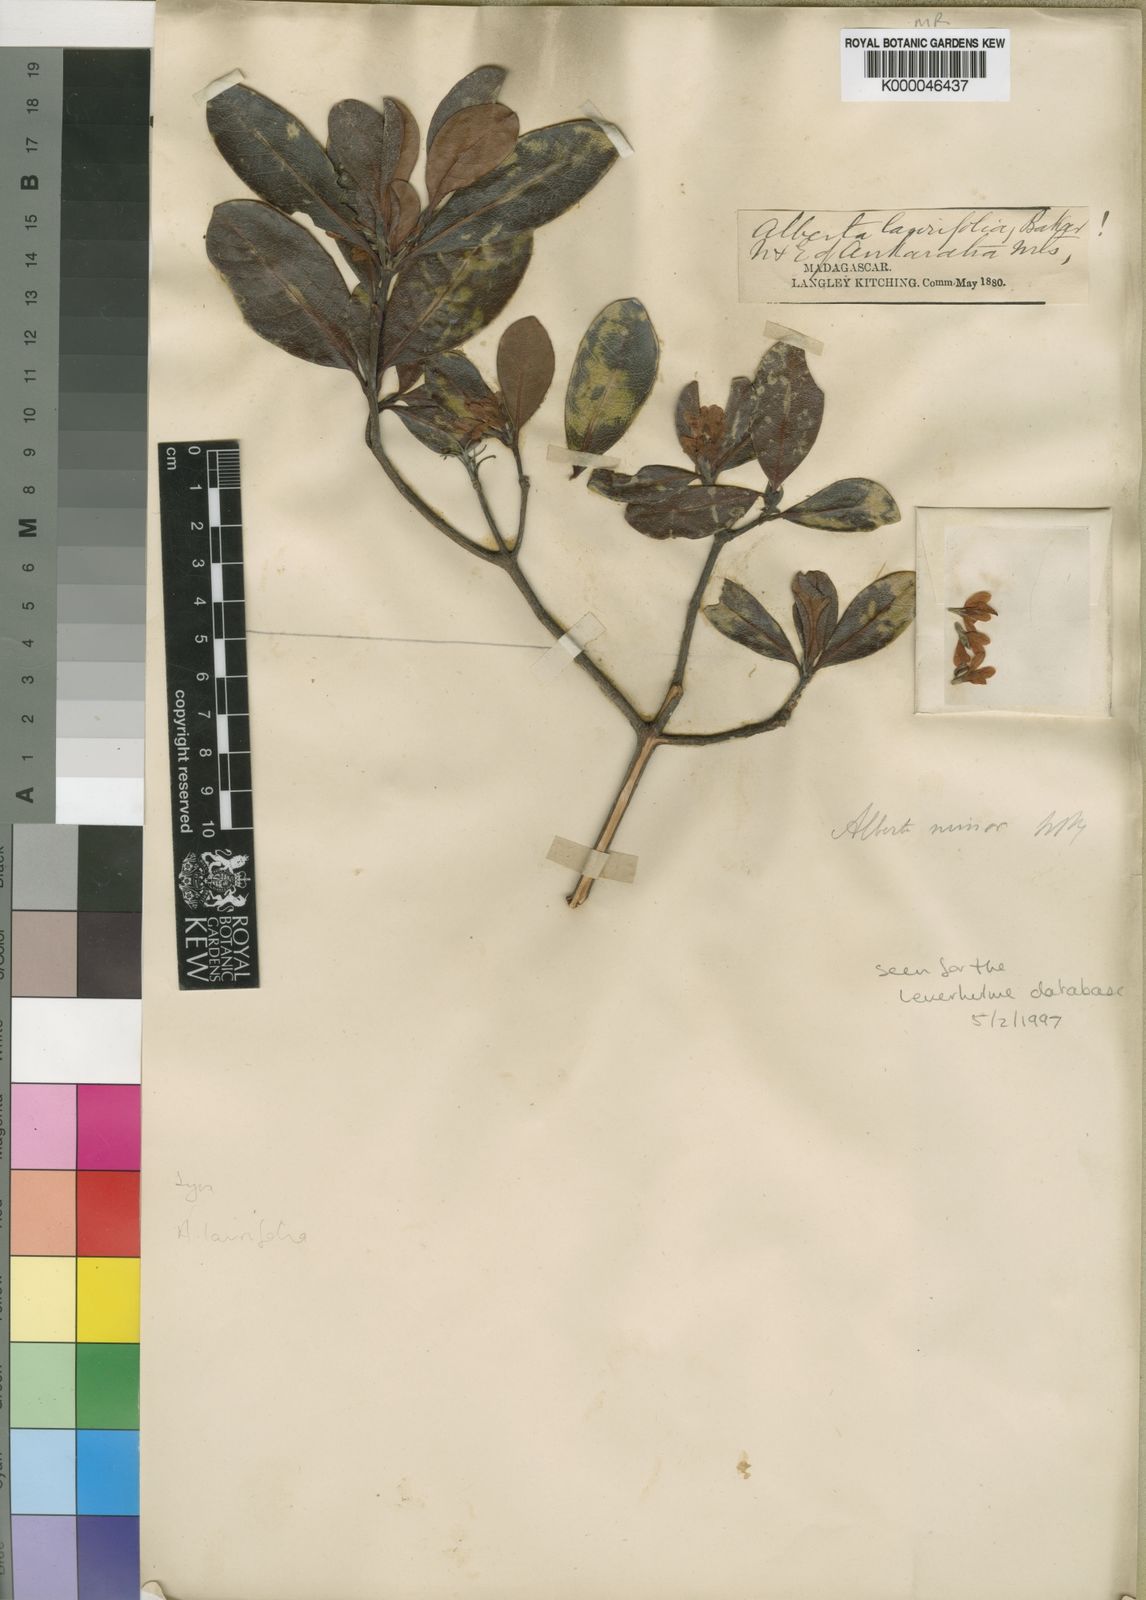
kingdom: Plantae
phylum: Tracheophyta
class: Magnoliopsida
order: Gentianales
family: Rubiaceae
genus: Razafimandimbisonia
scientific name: Razafimandimbisonia minor
